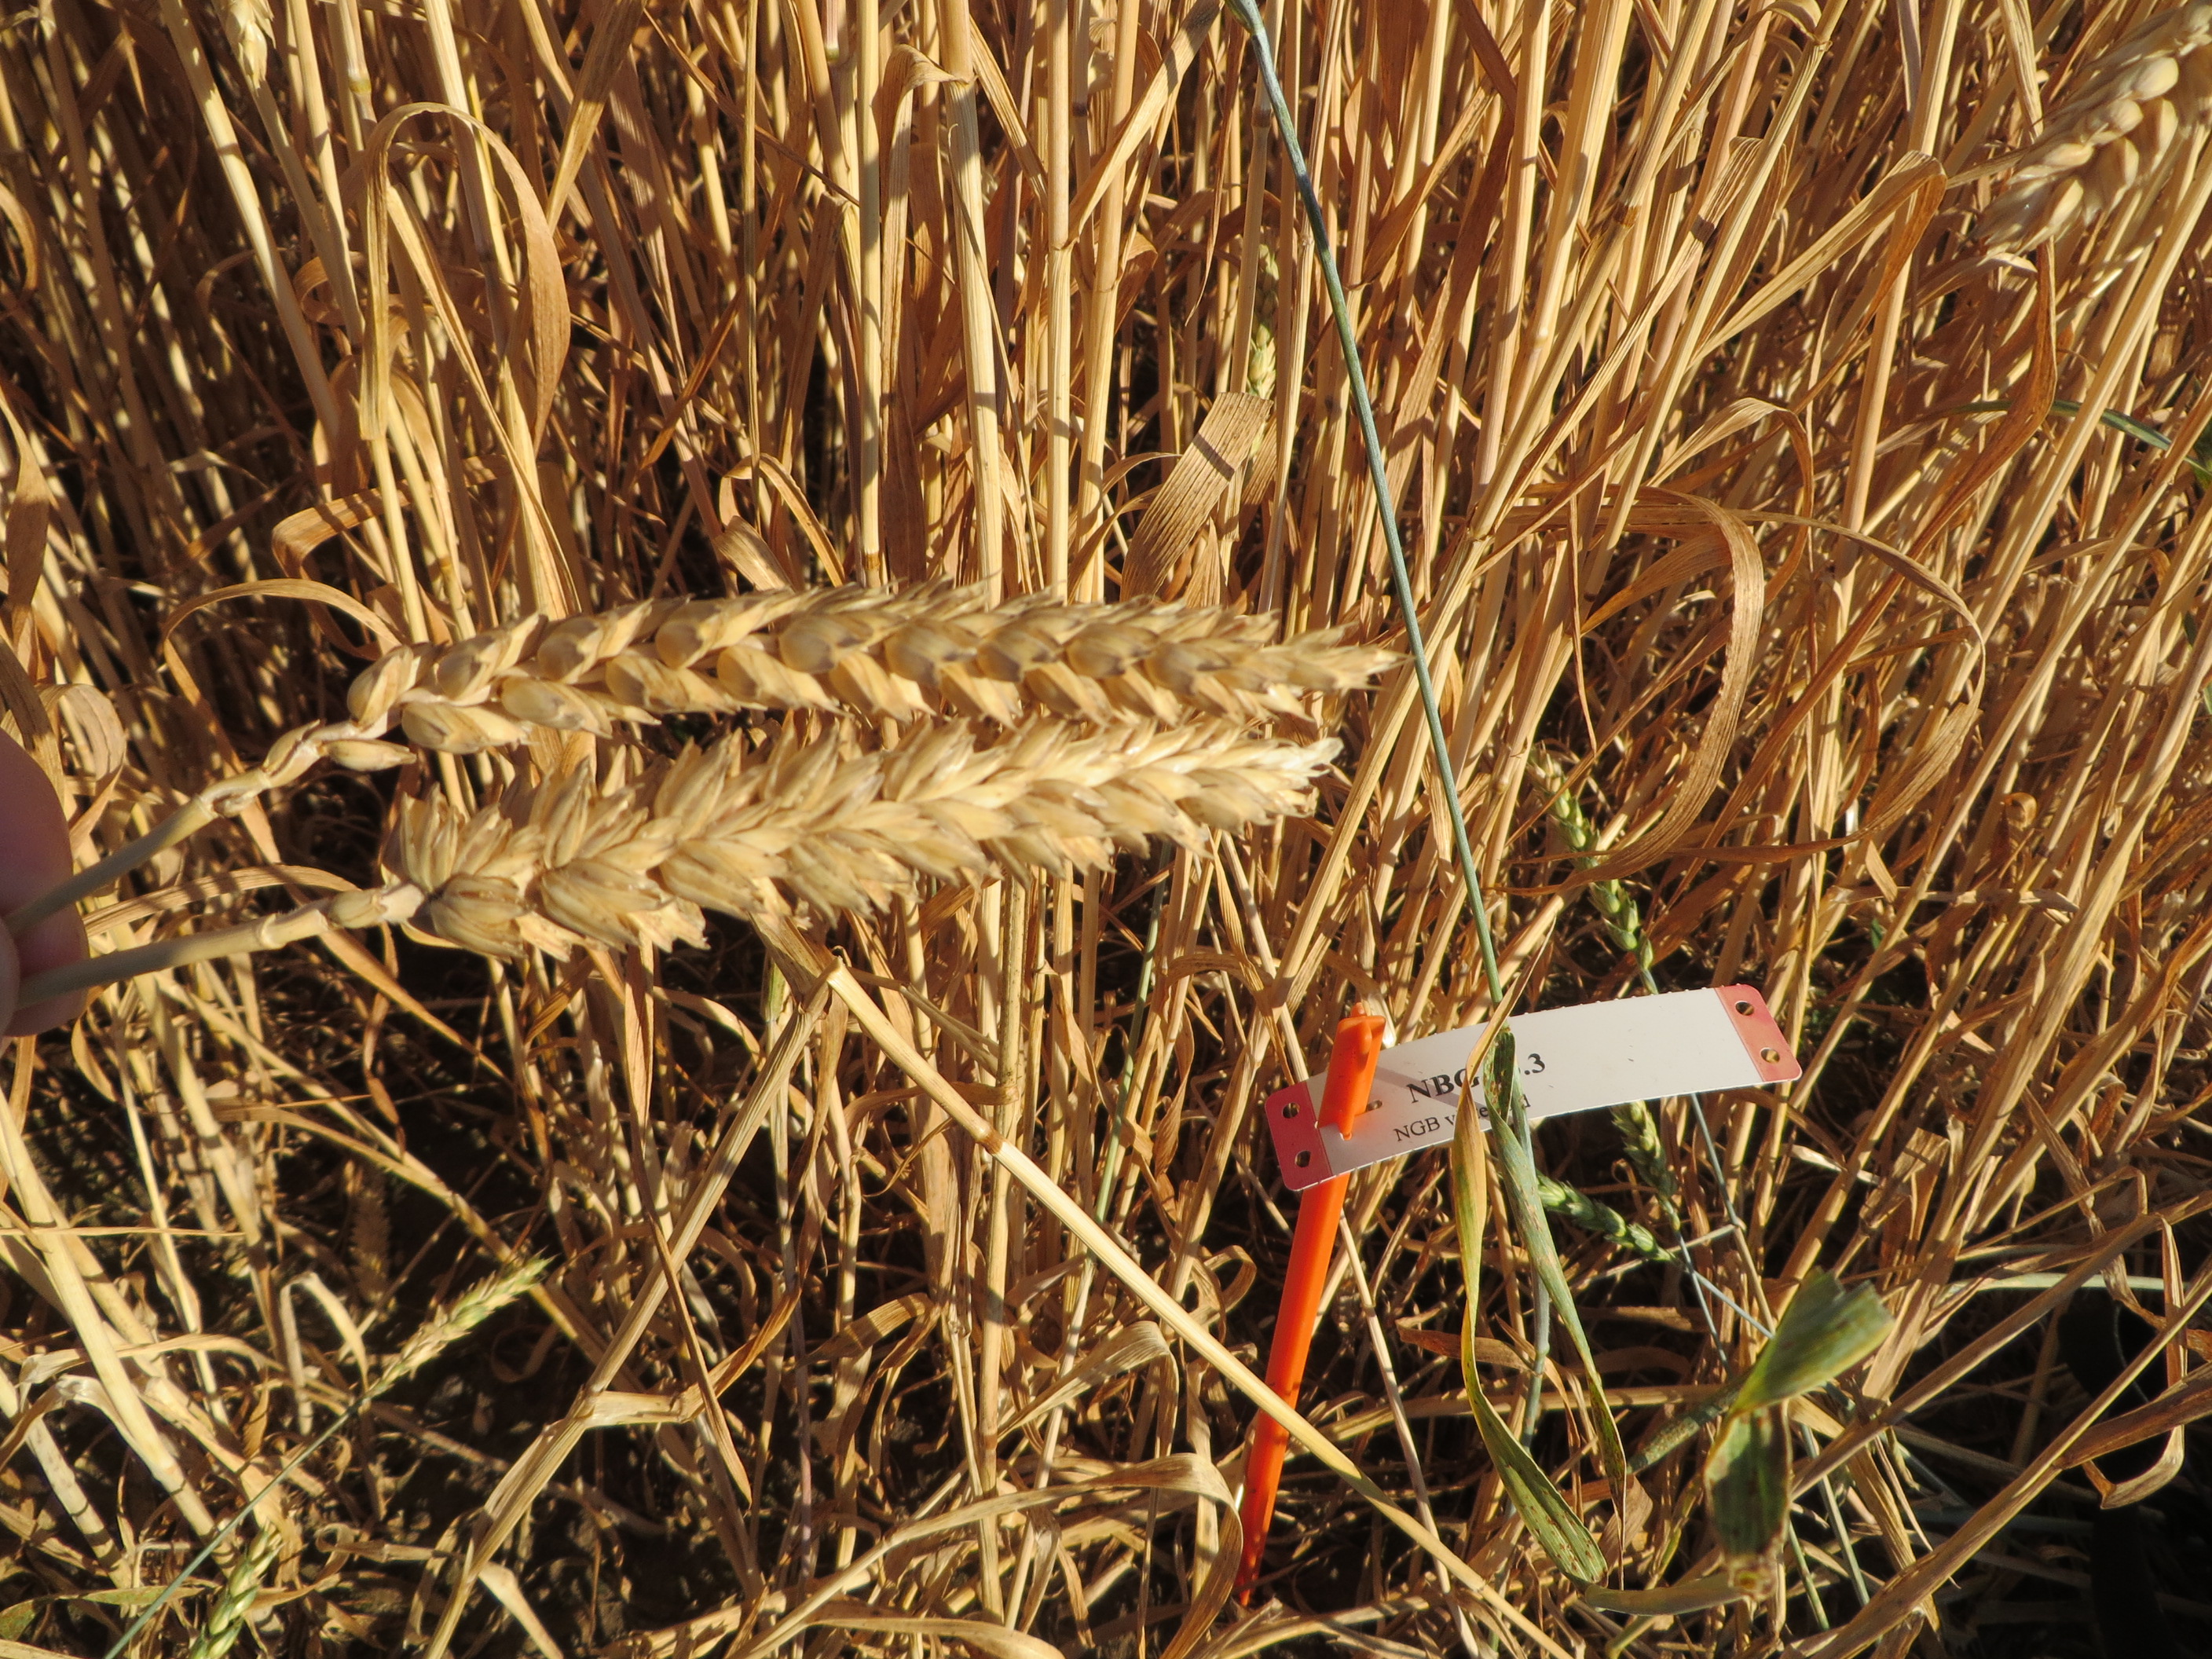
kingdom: Plantae
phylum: Tracheophyta
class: Liliopsida
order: Poales
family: Poaceae
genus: Triticum
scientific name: Triticum aestivum
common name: Common wheat
